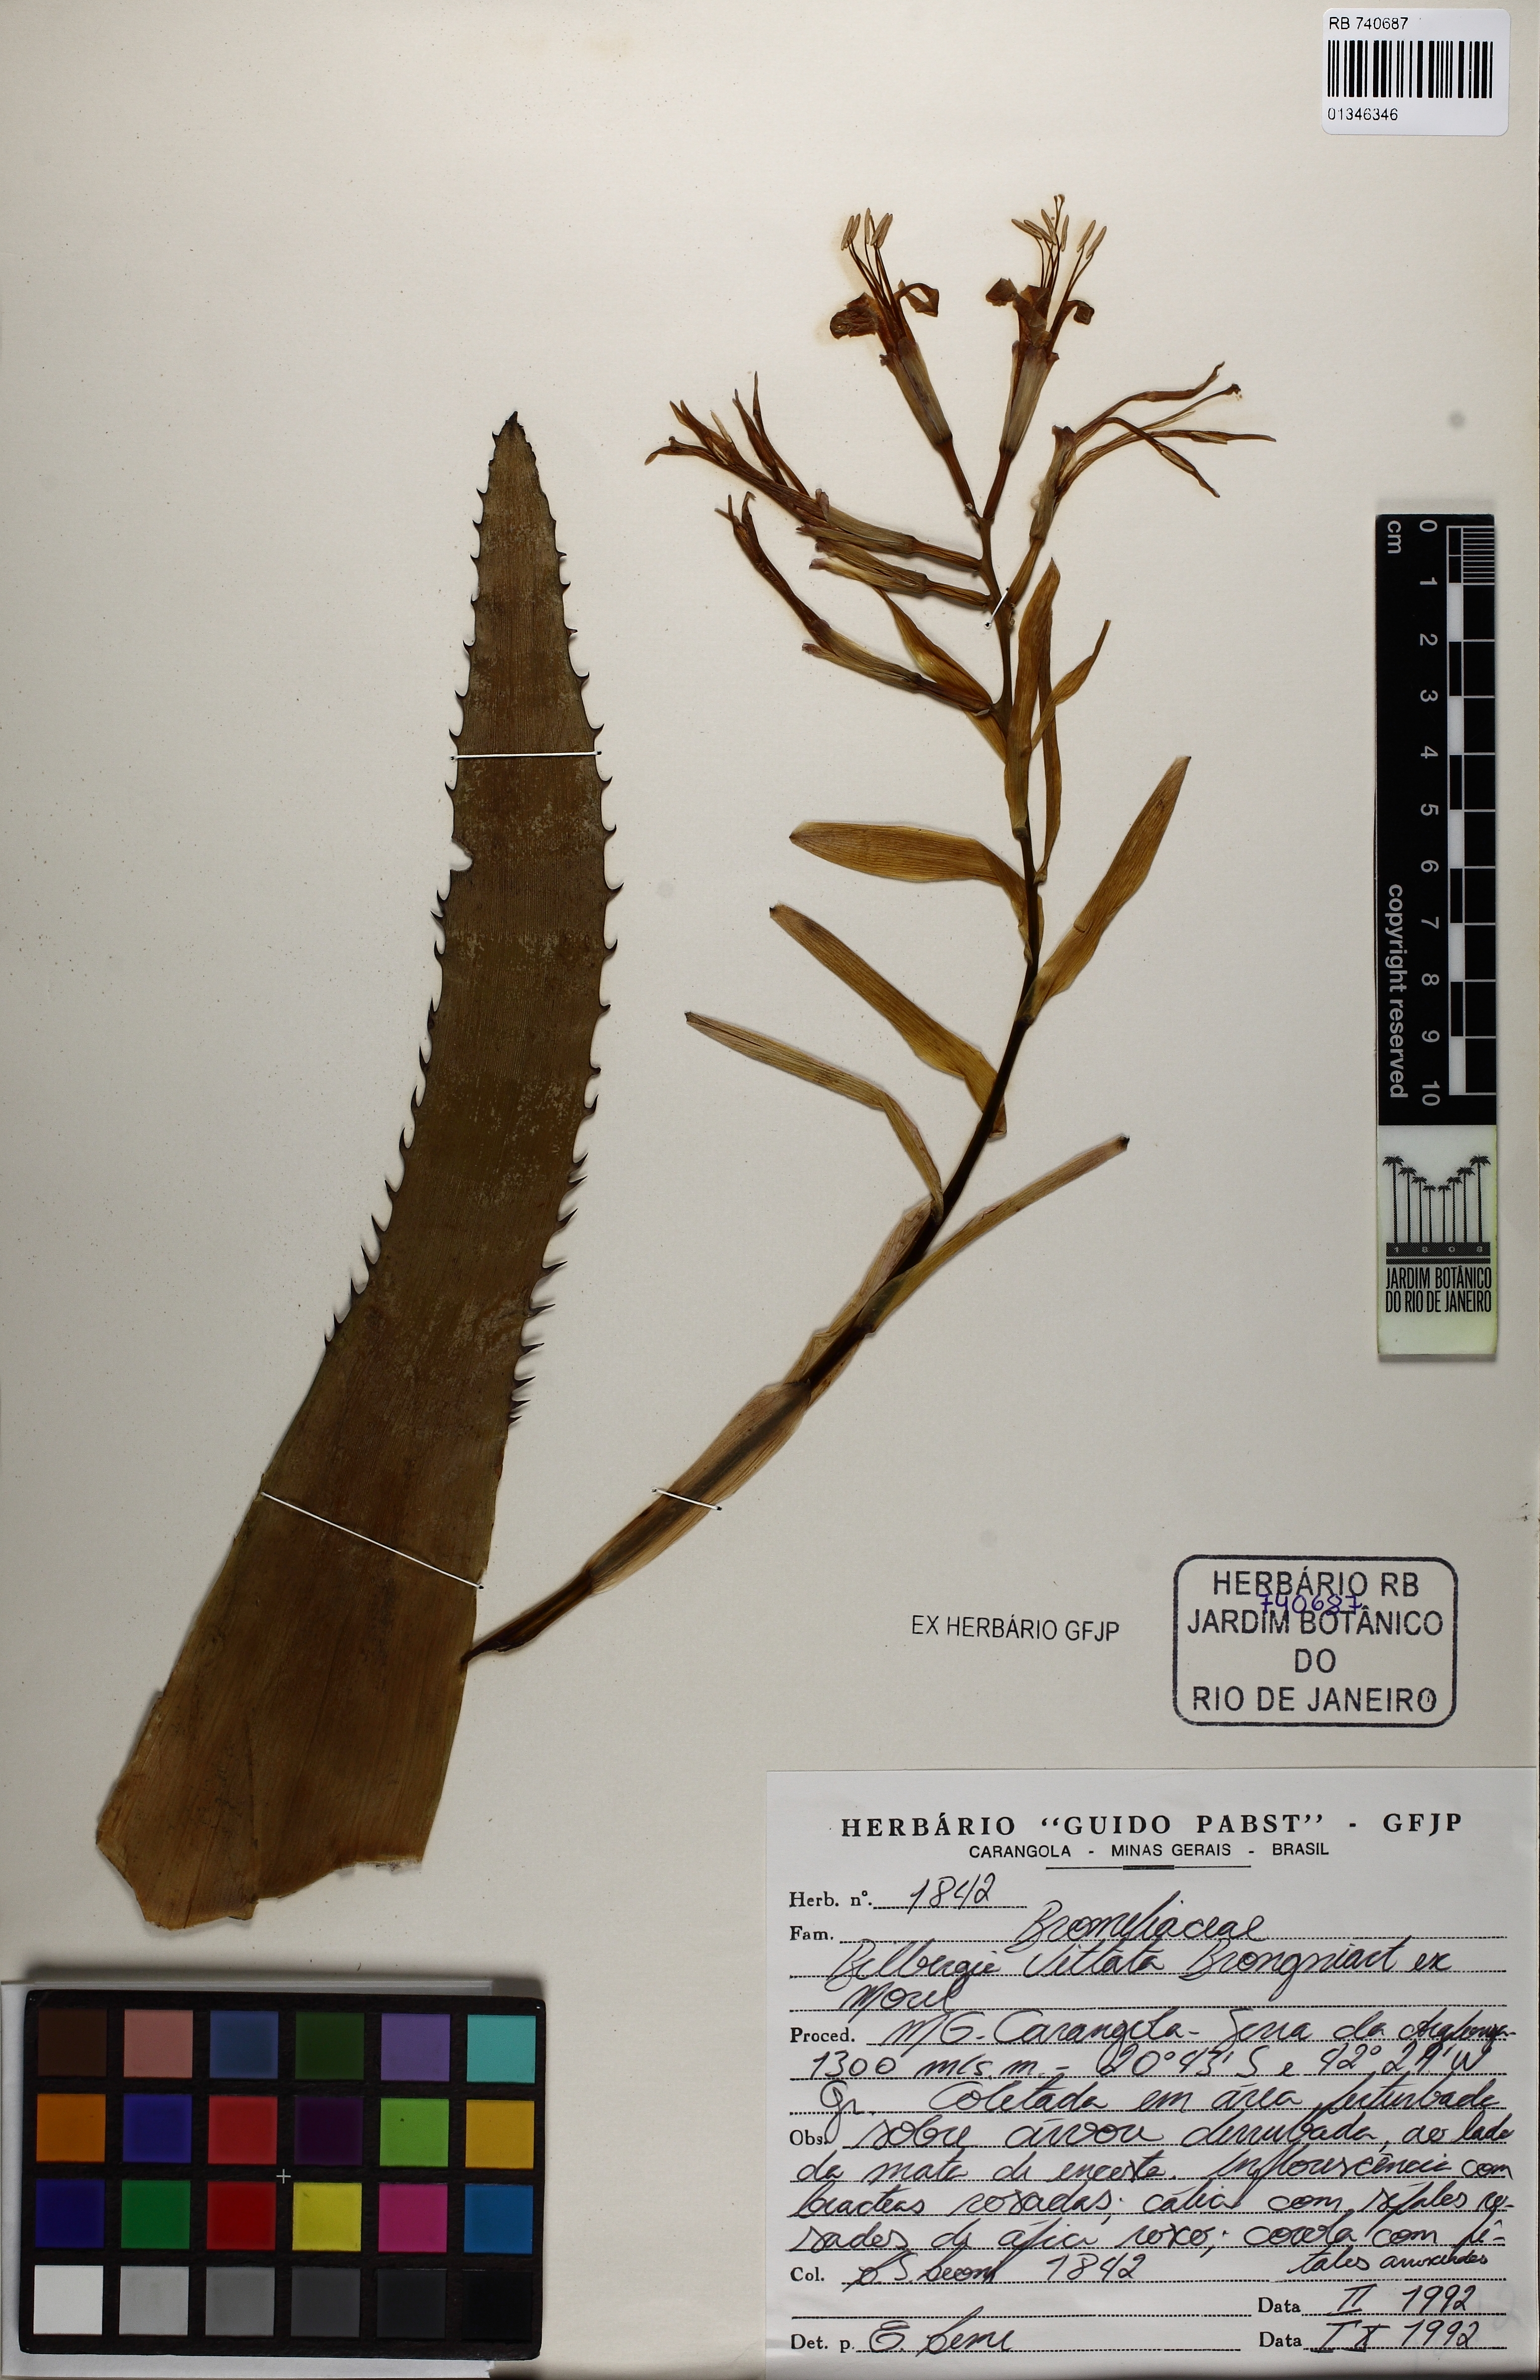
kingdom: Plantae
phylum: Tracheophyta
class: Liliopsida
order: Poales
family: Bromeliaceae
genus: Billbergia
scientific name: Billbergia vittata
